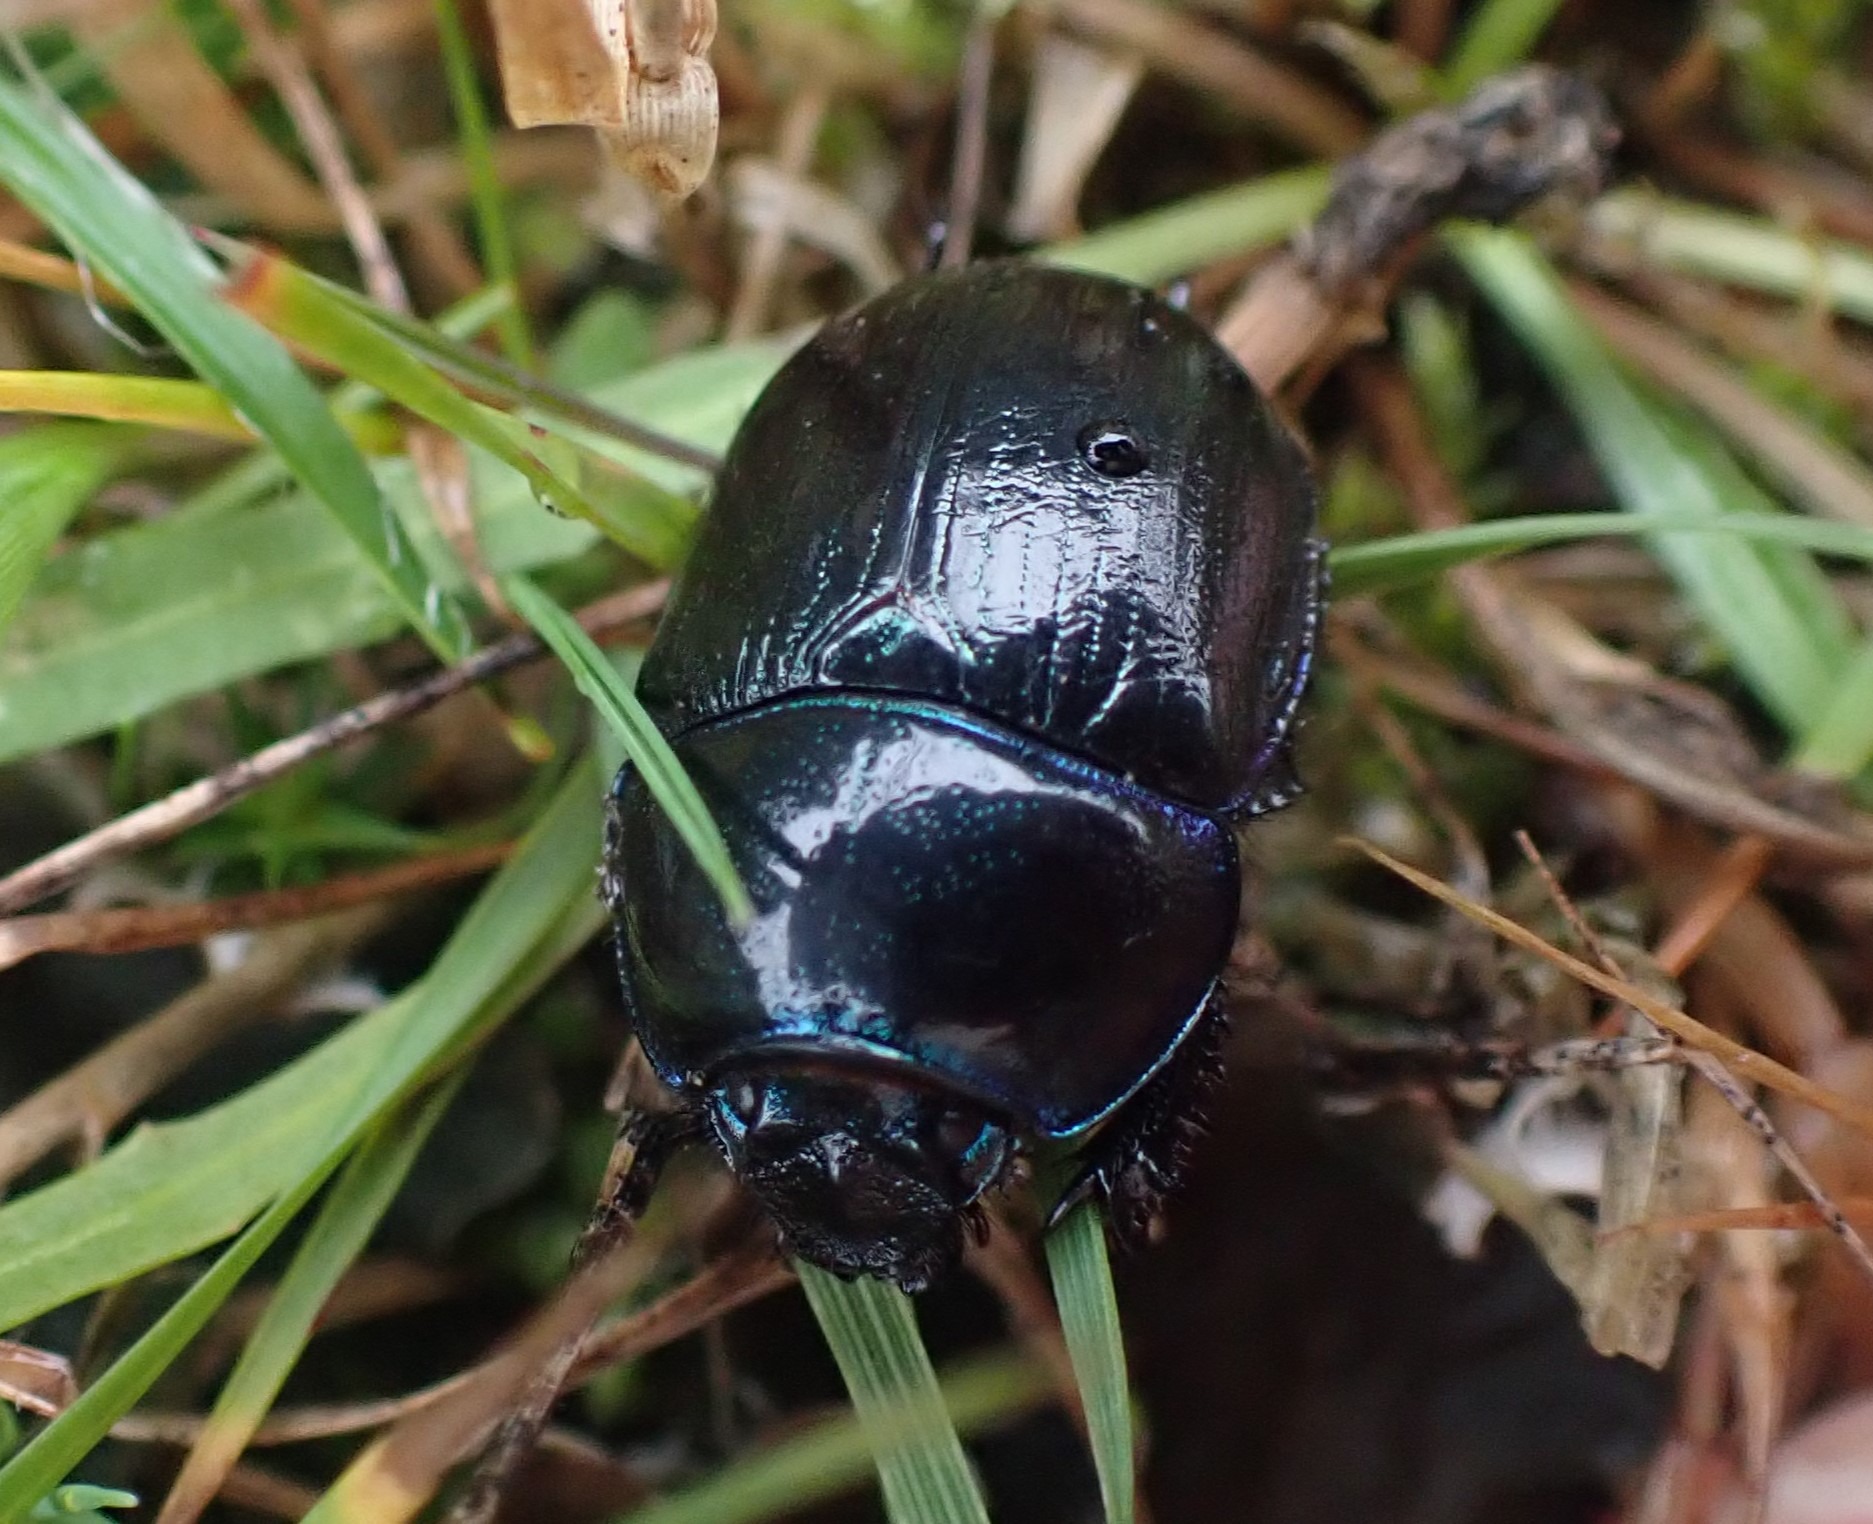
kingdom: Animalia
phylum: Arthropoda
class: Insecta
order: Coleoptera
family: Geotrupidae
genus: Anoplotrupes
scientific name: Anoplotrupes stercorosus
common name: Skovskarnbasse
